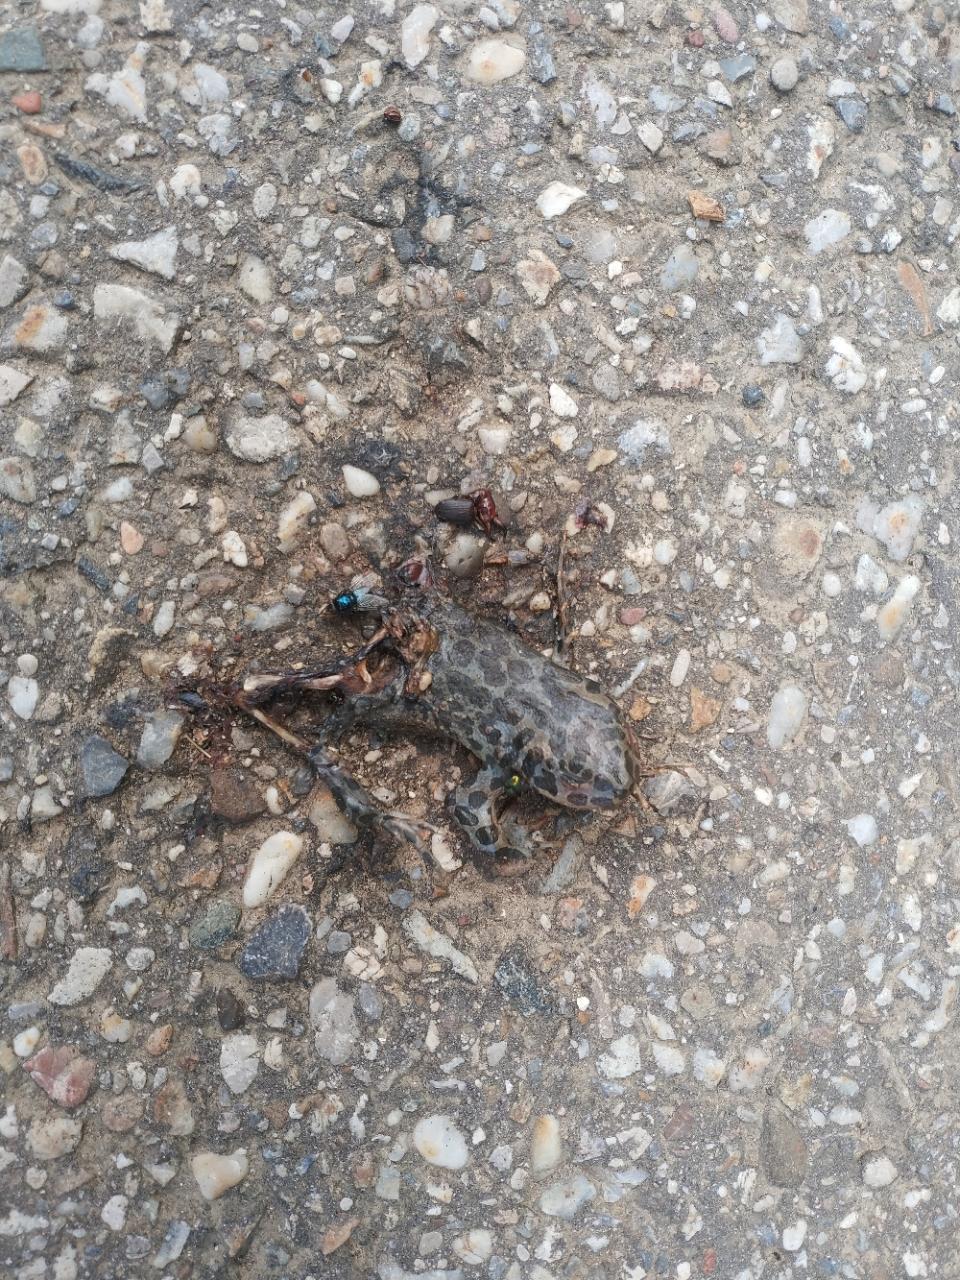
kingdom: Animalia
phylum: Chordata
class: Amphibia
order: Anura
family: Bufonidae
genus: Bufotes
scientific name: Bufotes viridis
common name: European green toad
